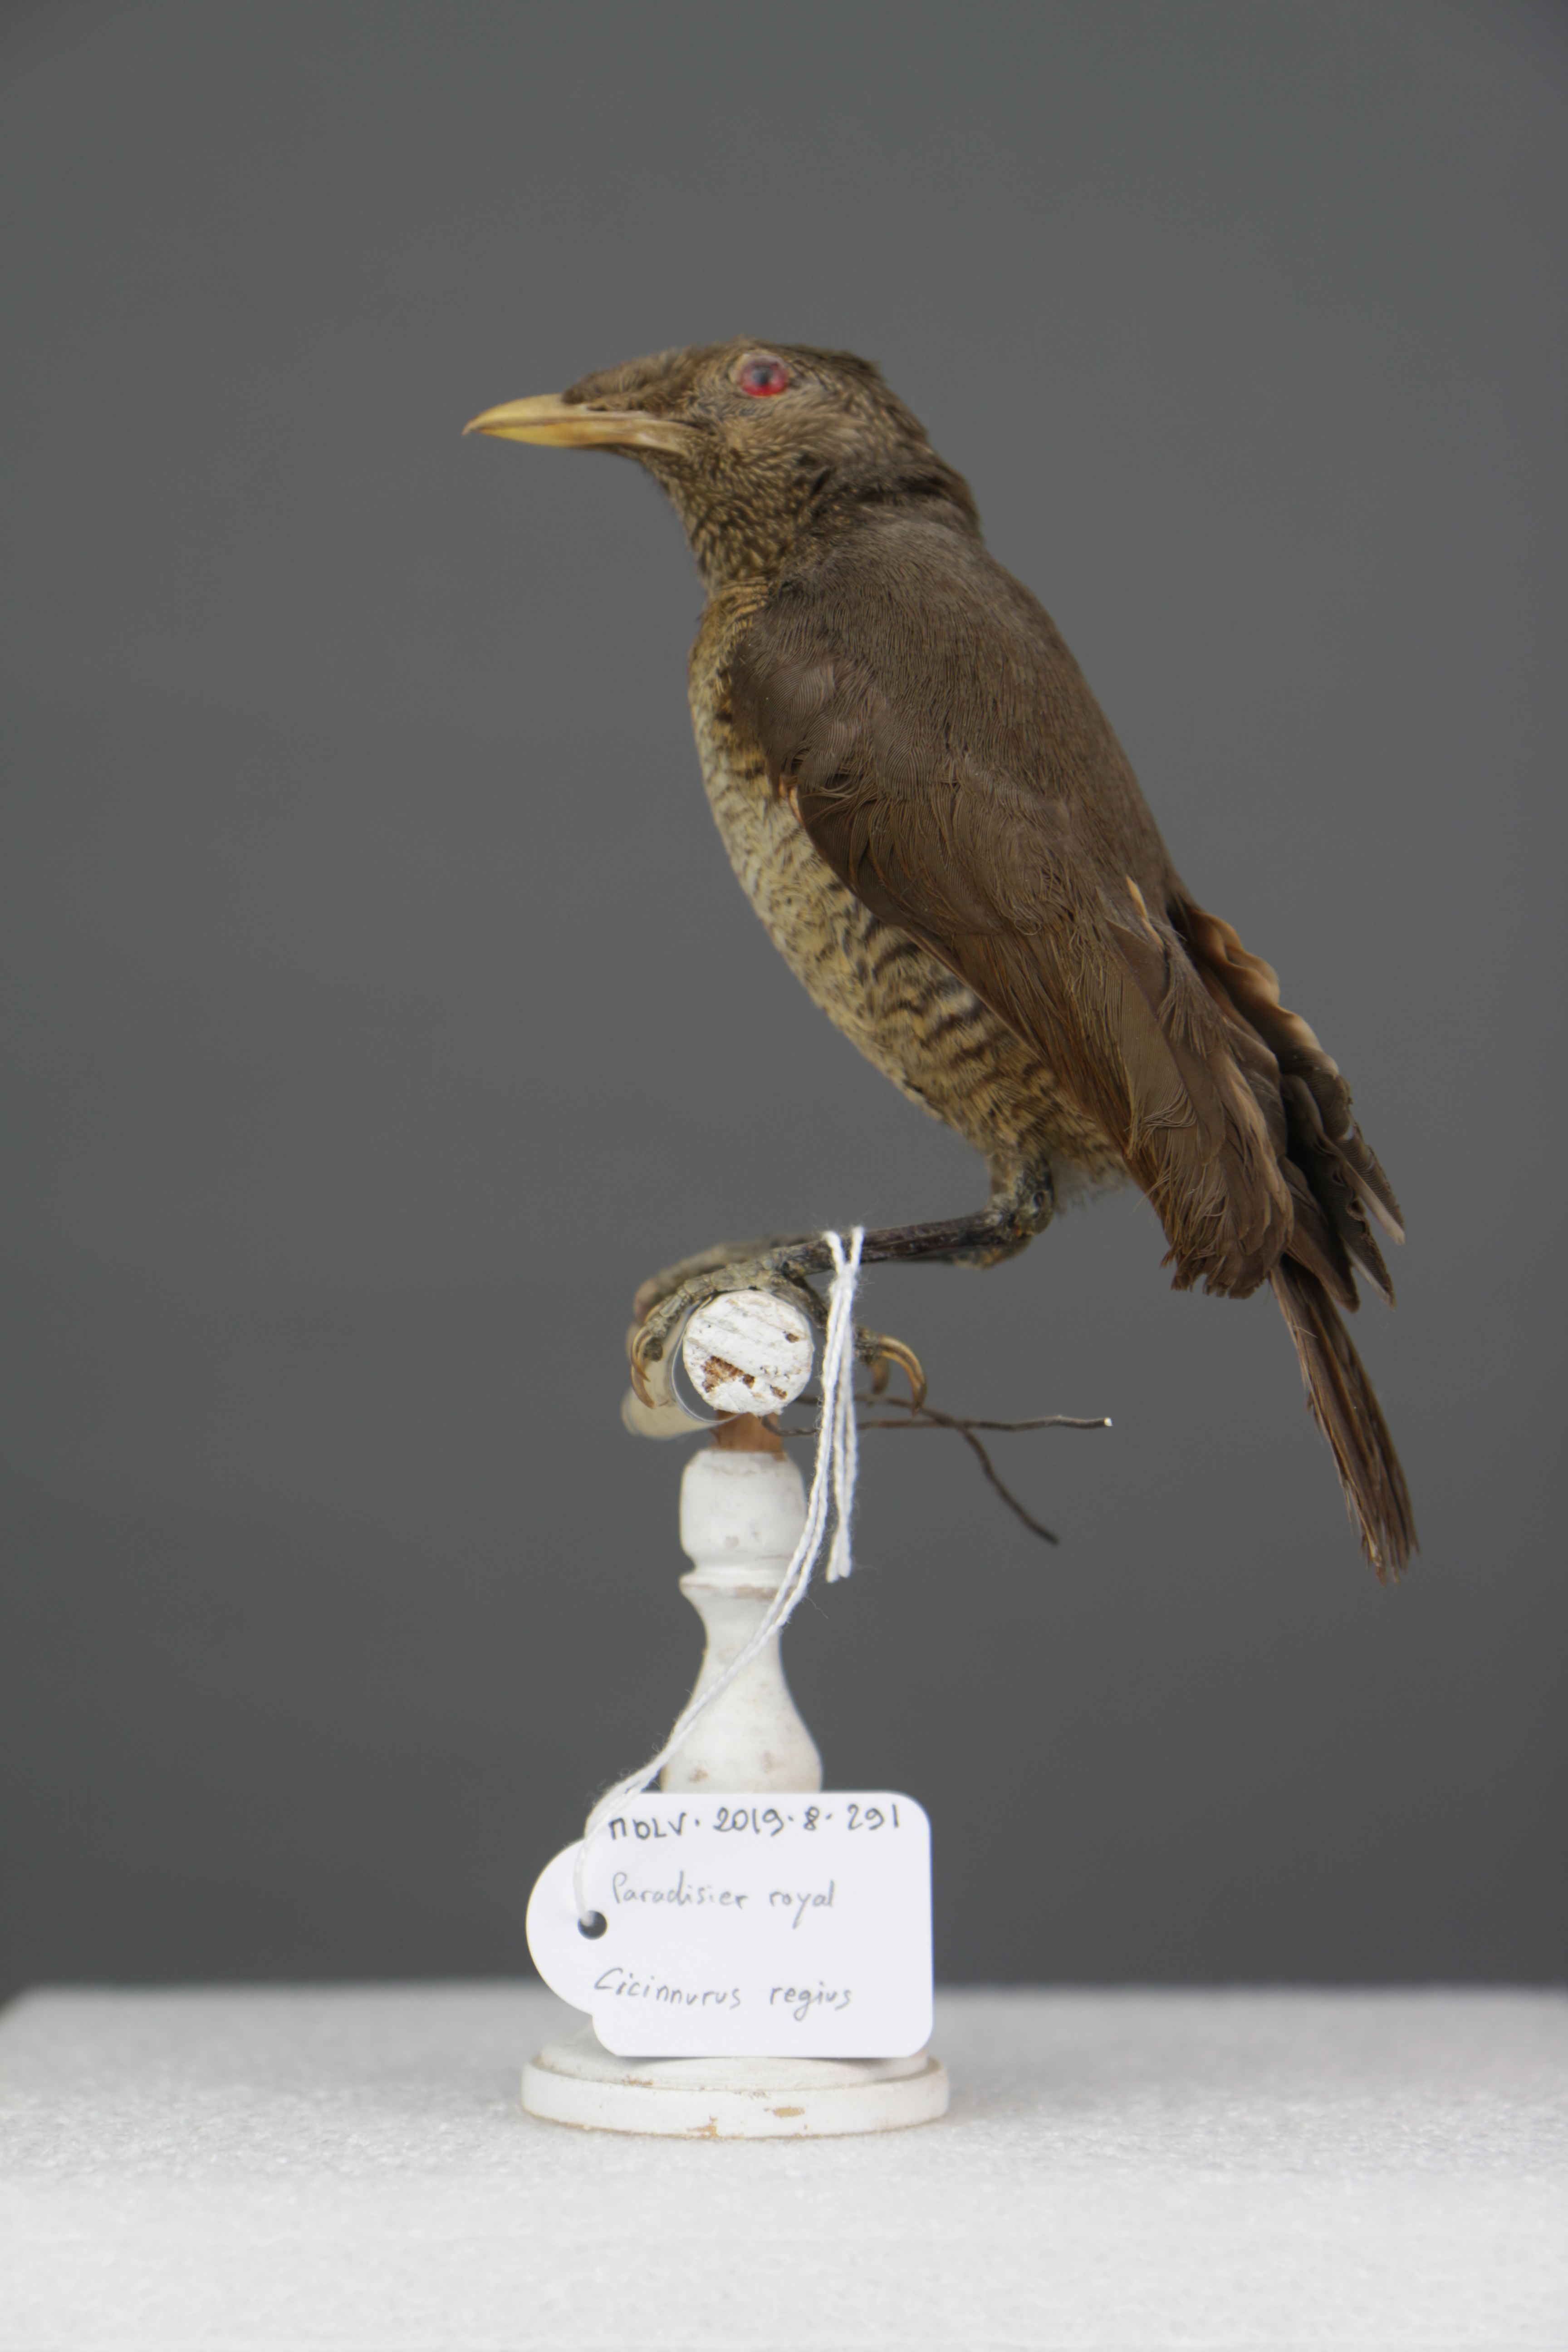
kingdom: Animalia
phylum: Chordata
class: Aves
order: Passeriformes
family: Paradisaeidae
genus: Cicinnurus
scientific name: Cicinnurus regius
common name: King bird-of-paradise
